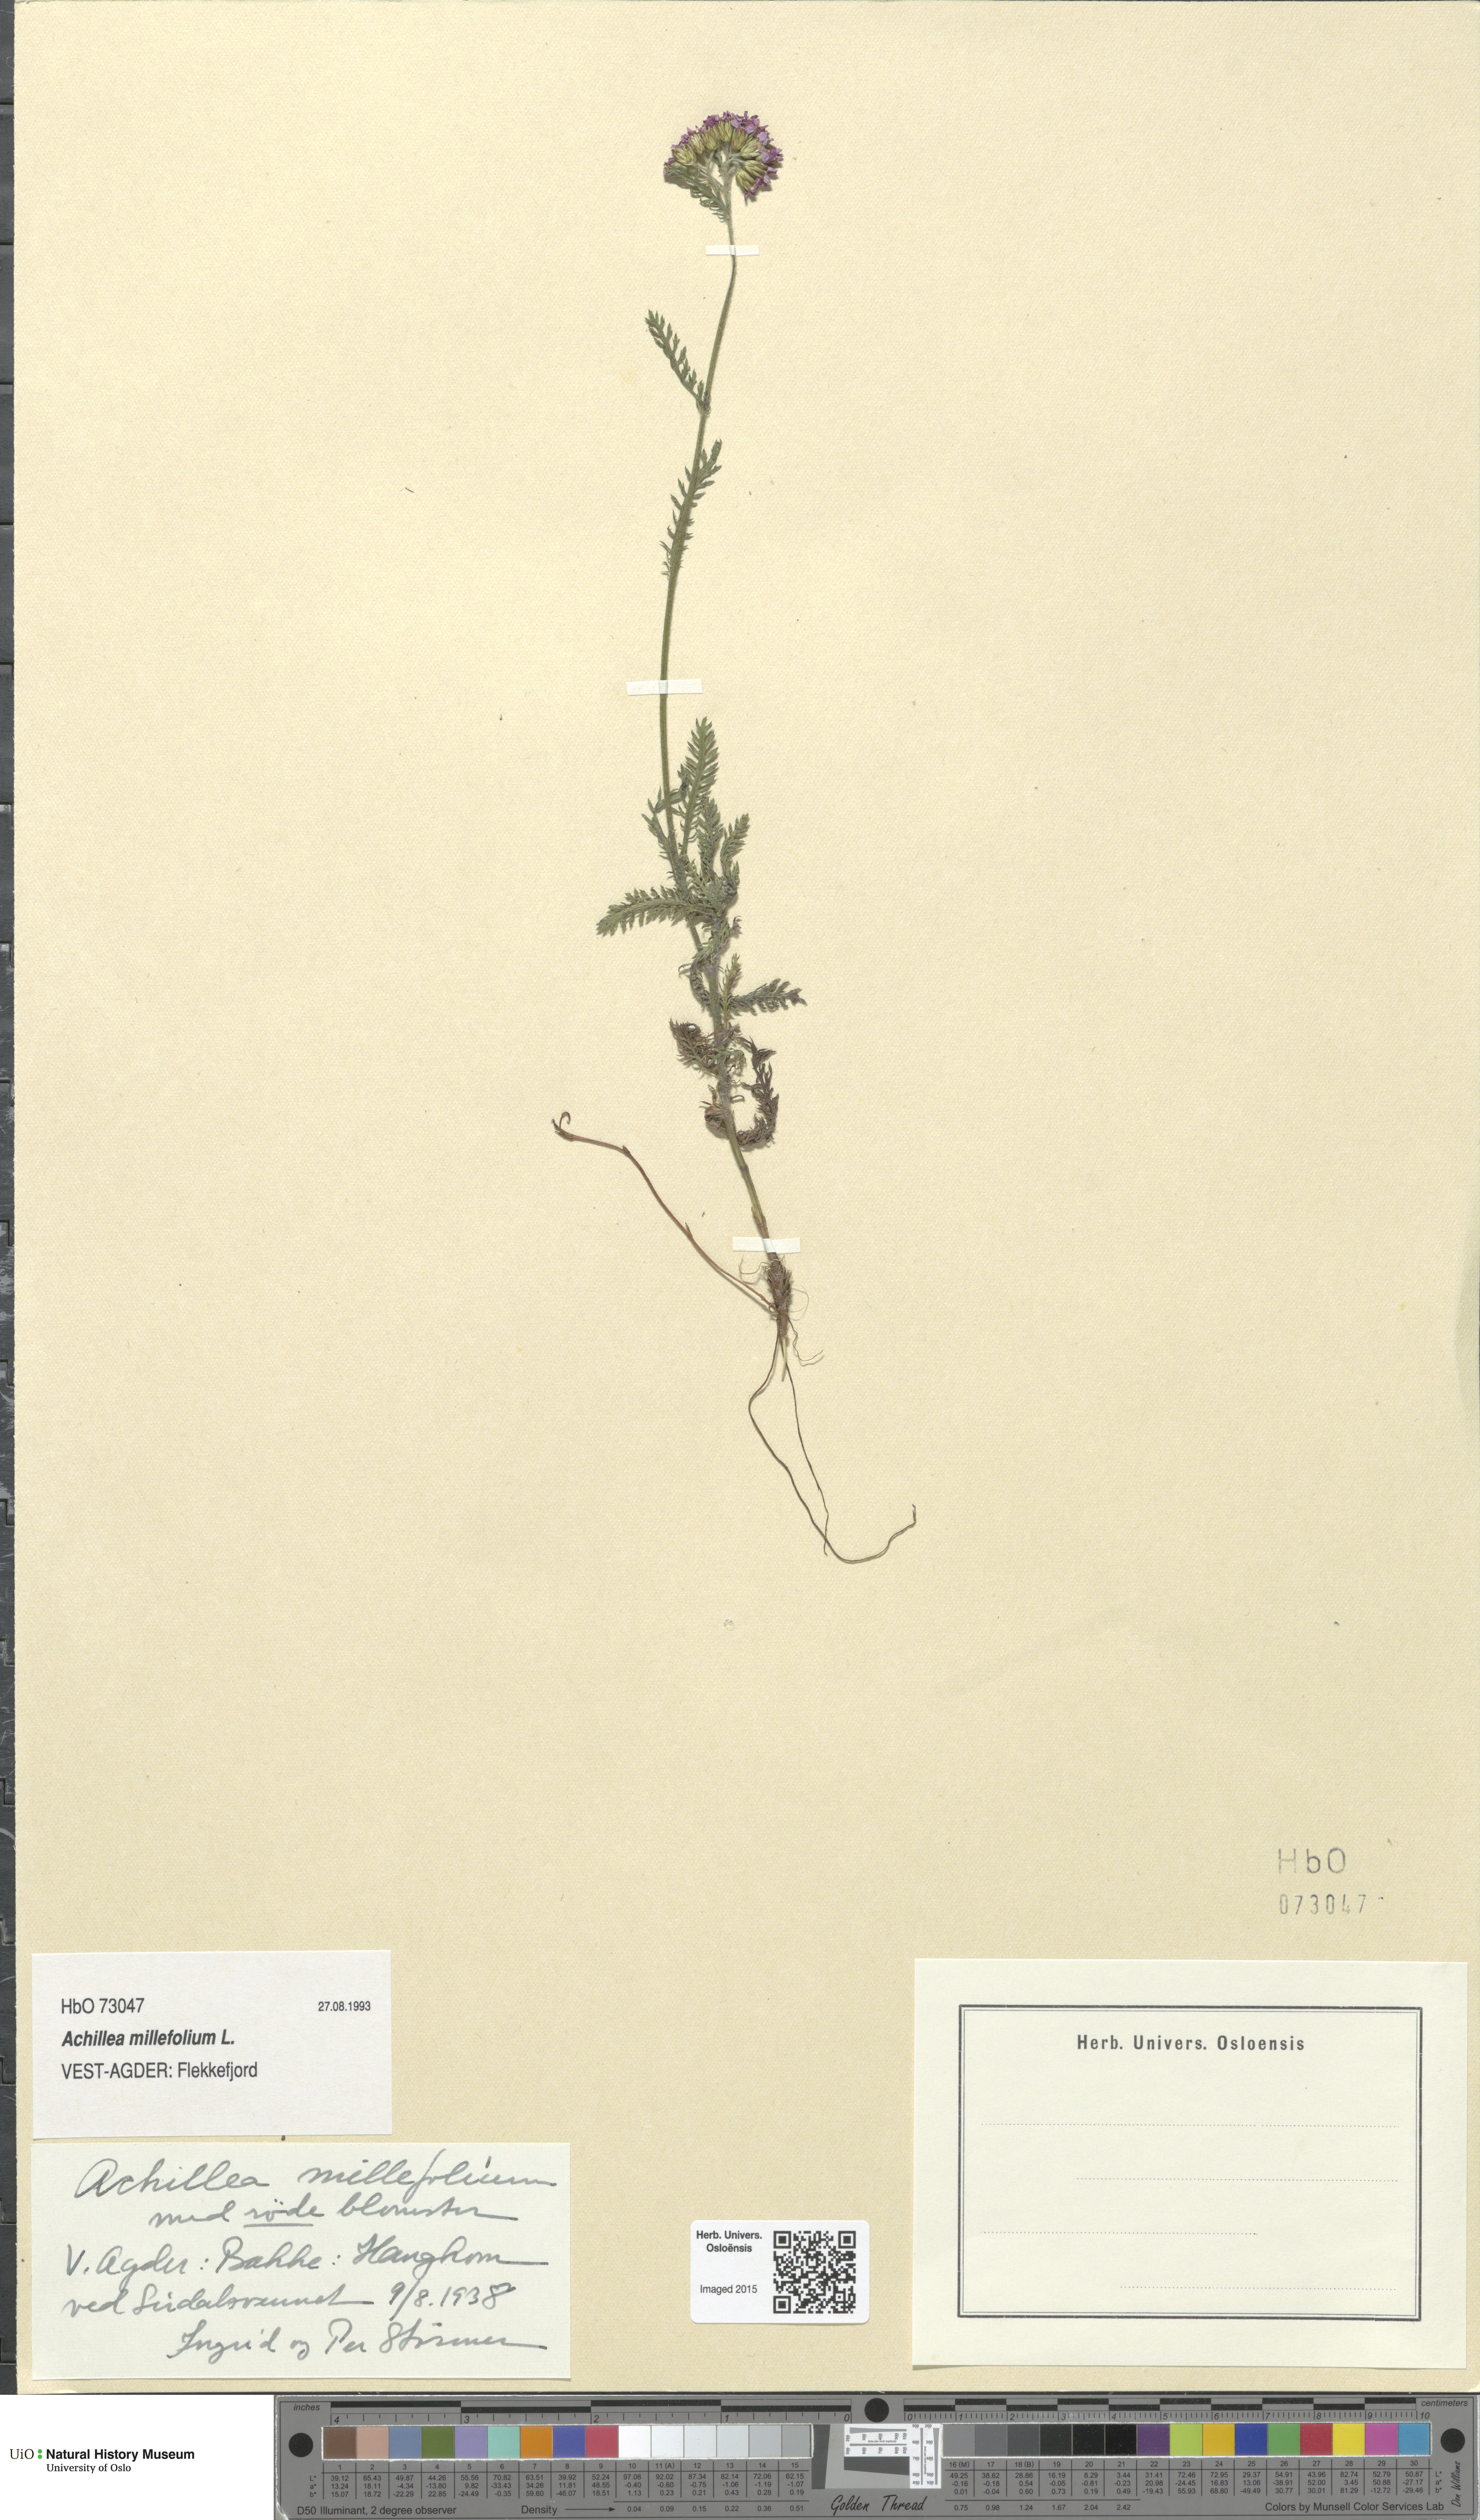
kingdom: Plantae
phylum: Tracheophyta
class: Magnoliopsida
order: Asterales
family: Asteraceae
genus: Achillea
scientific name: Achillea millefolium
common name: Yarrow
